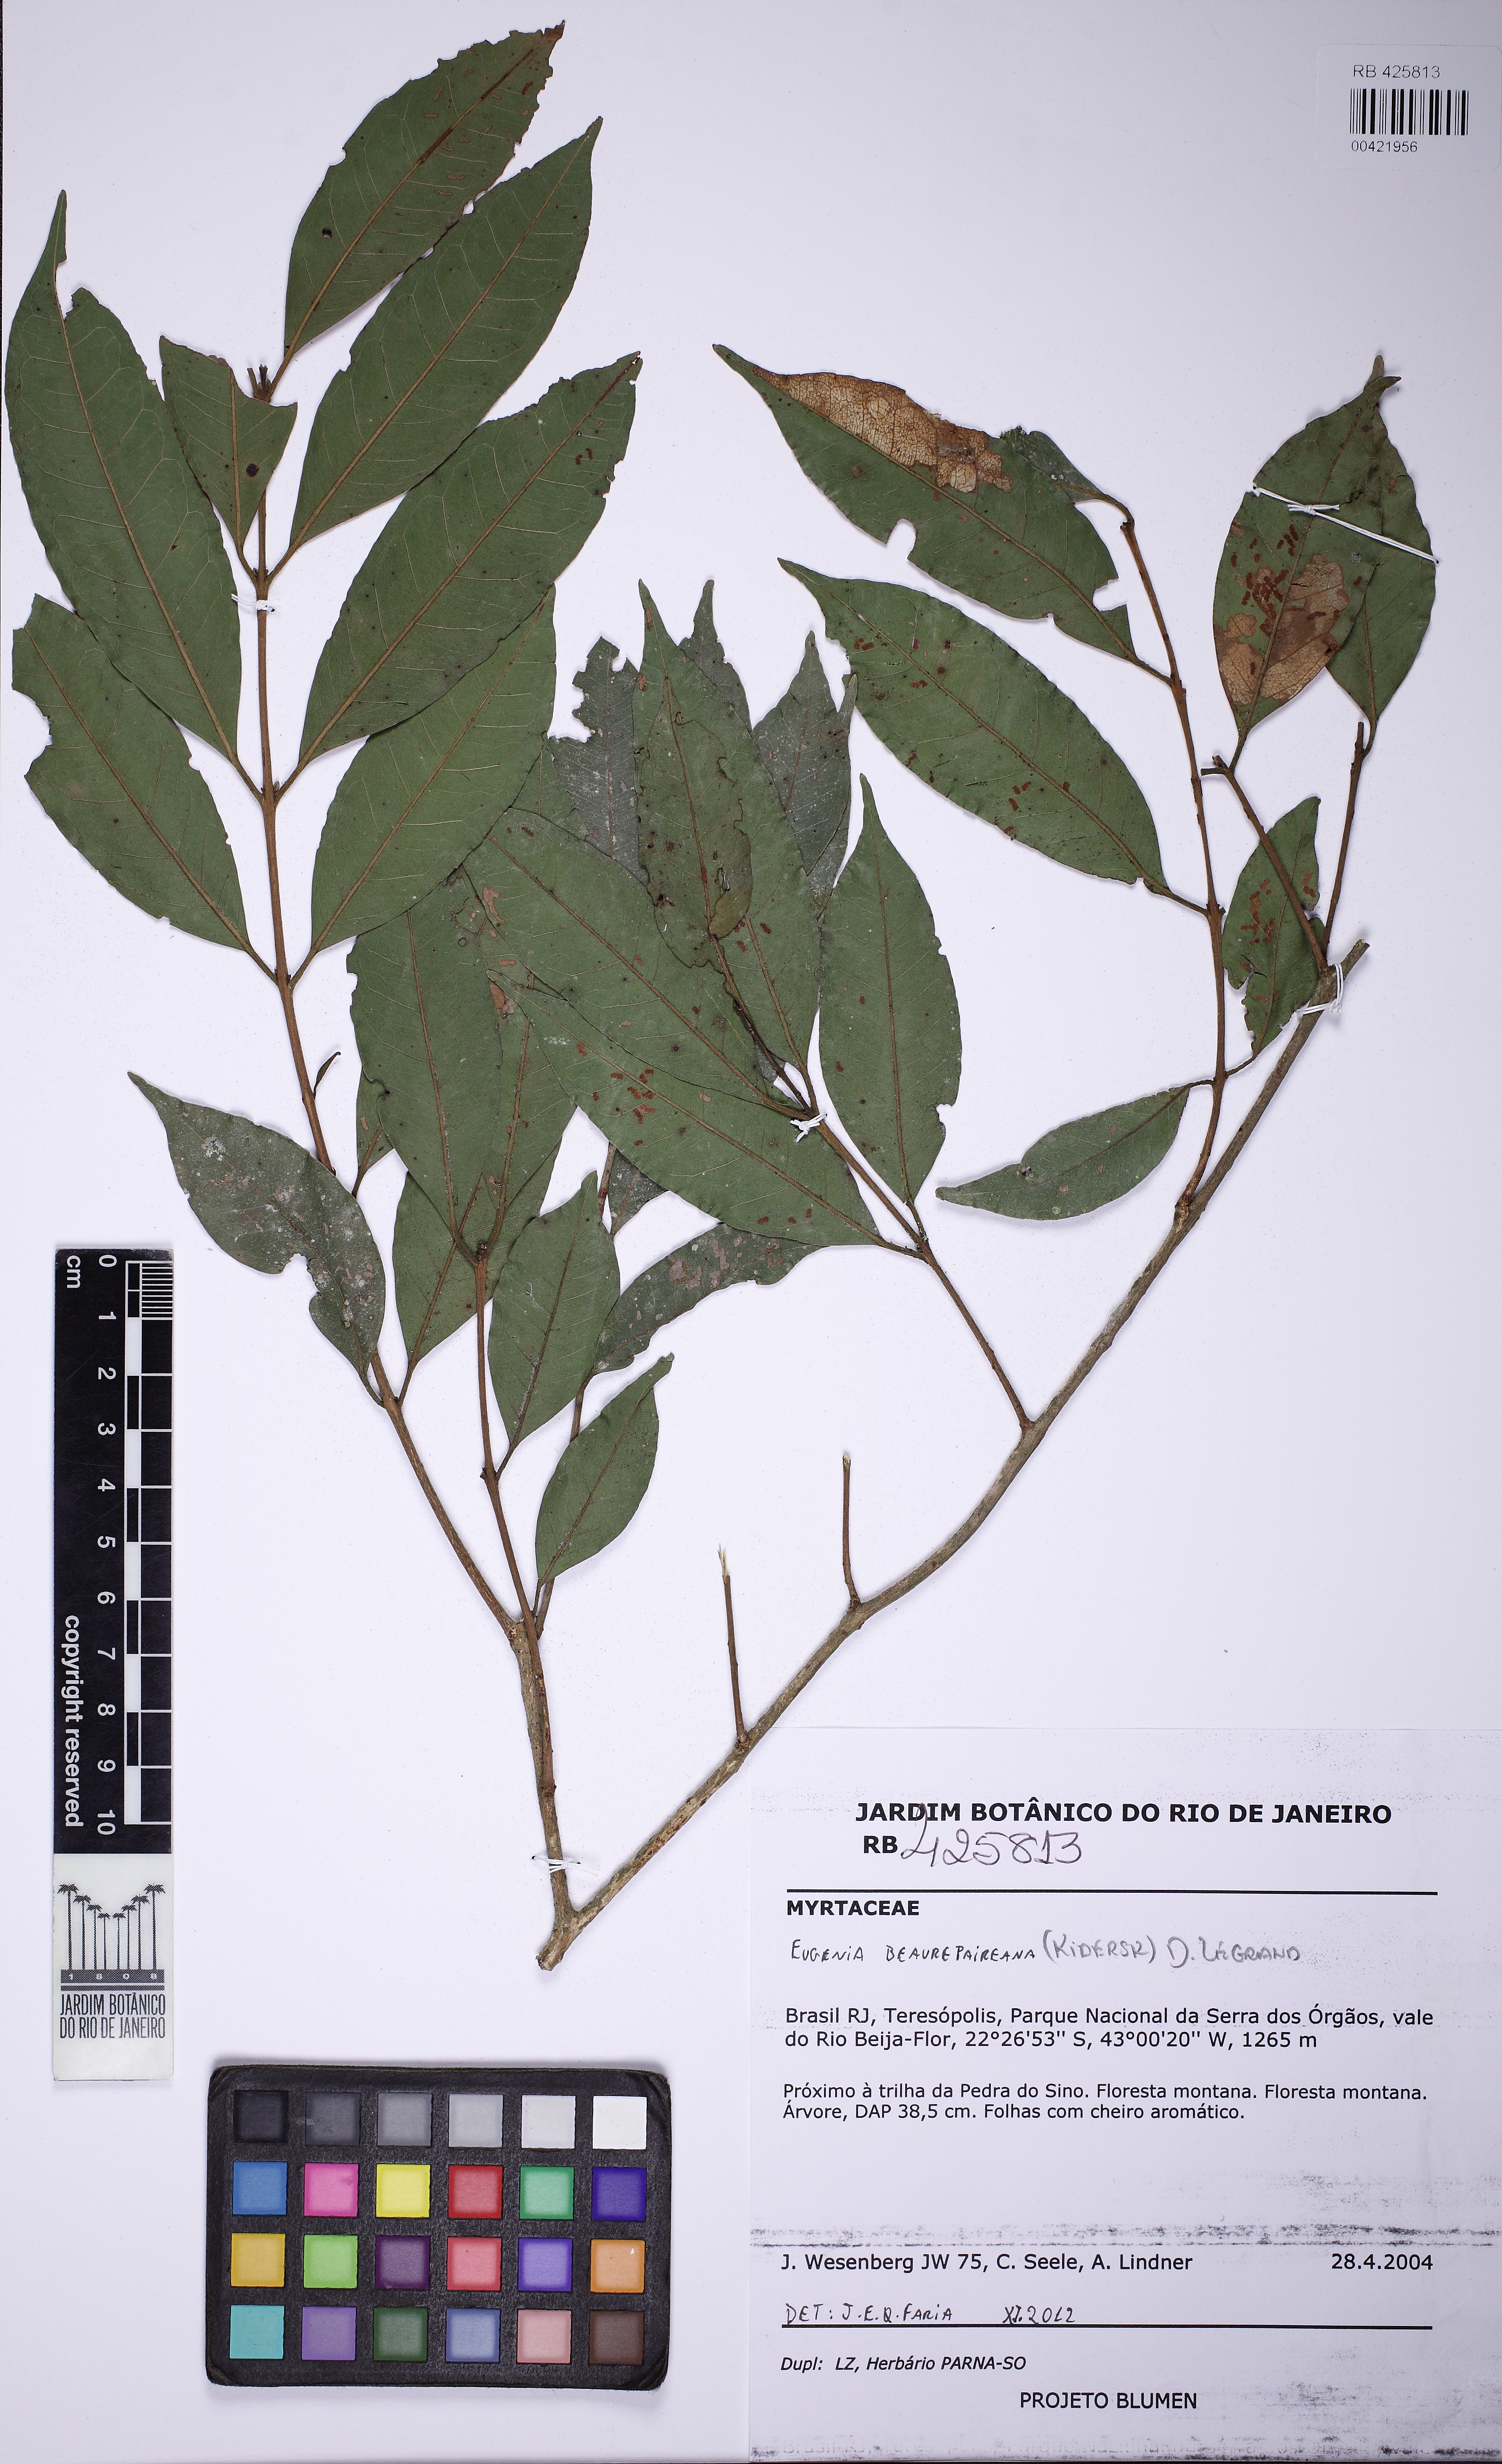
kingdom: Plantae
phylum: Tracheophyta
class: Magnoliopsida
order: Myrtales
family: Myrtaceae
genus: Eugenia
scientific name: Eugenia ternatifolia
